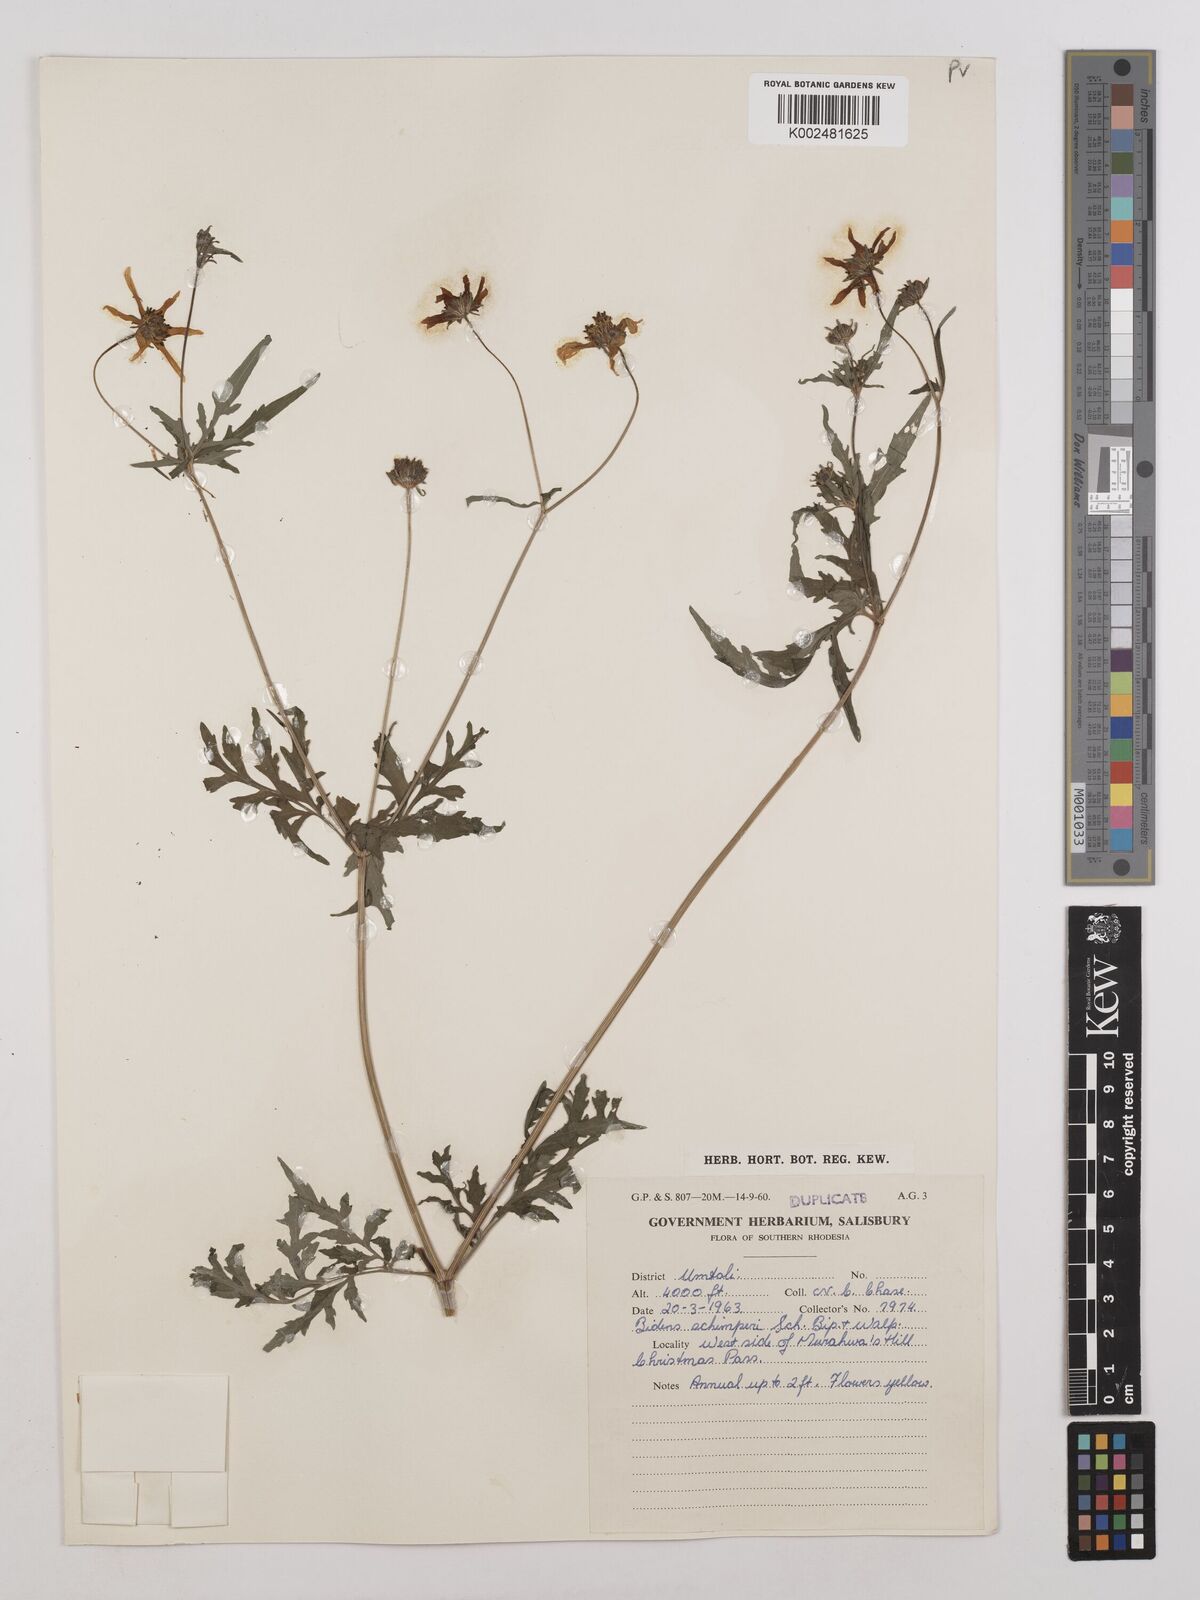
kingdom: Plantae
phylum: Tracheophyta
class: Magnoliopsida
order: Asterales
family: Asteraceae
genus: Bidens
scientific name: Bidens schimperi
